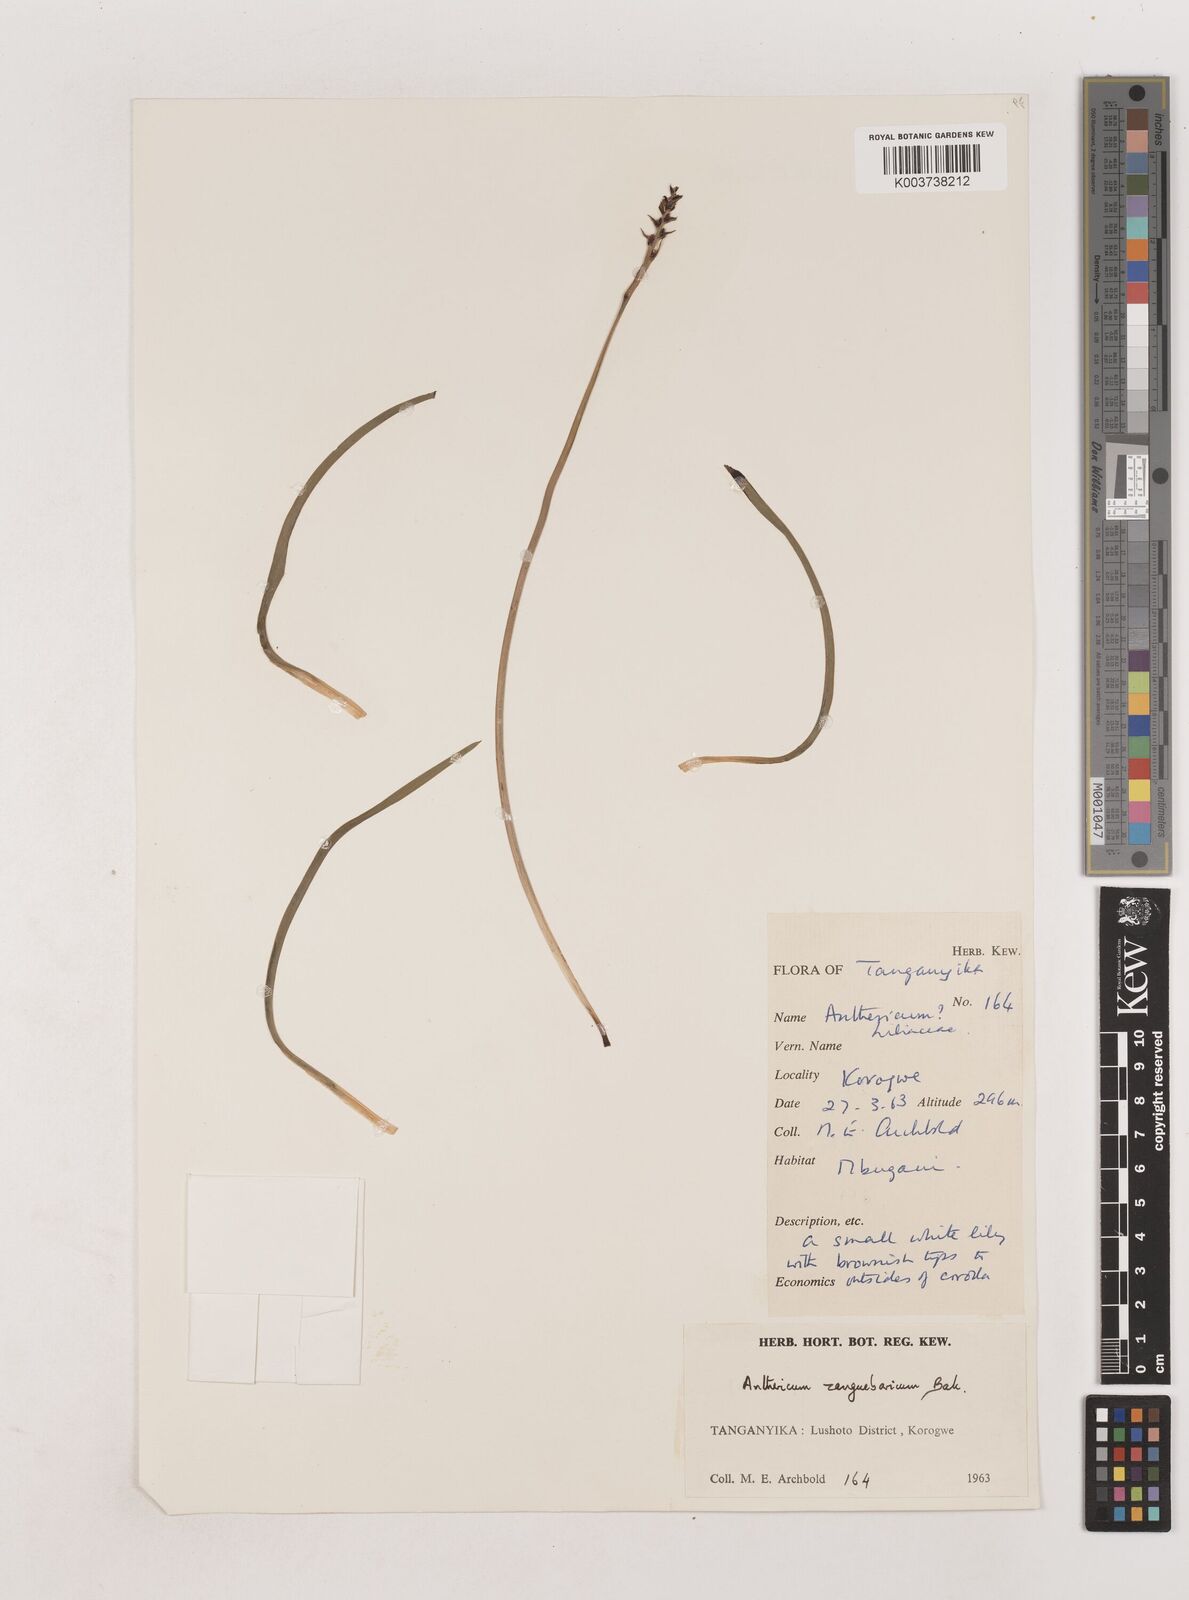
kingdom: Plantae
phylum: Tracheophyta
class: Liliopsida
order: Asparagales
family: Asparagaceae
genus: Chlorophytum
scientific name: Chlorophytum cameronii
